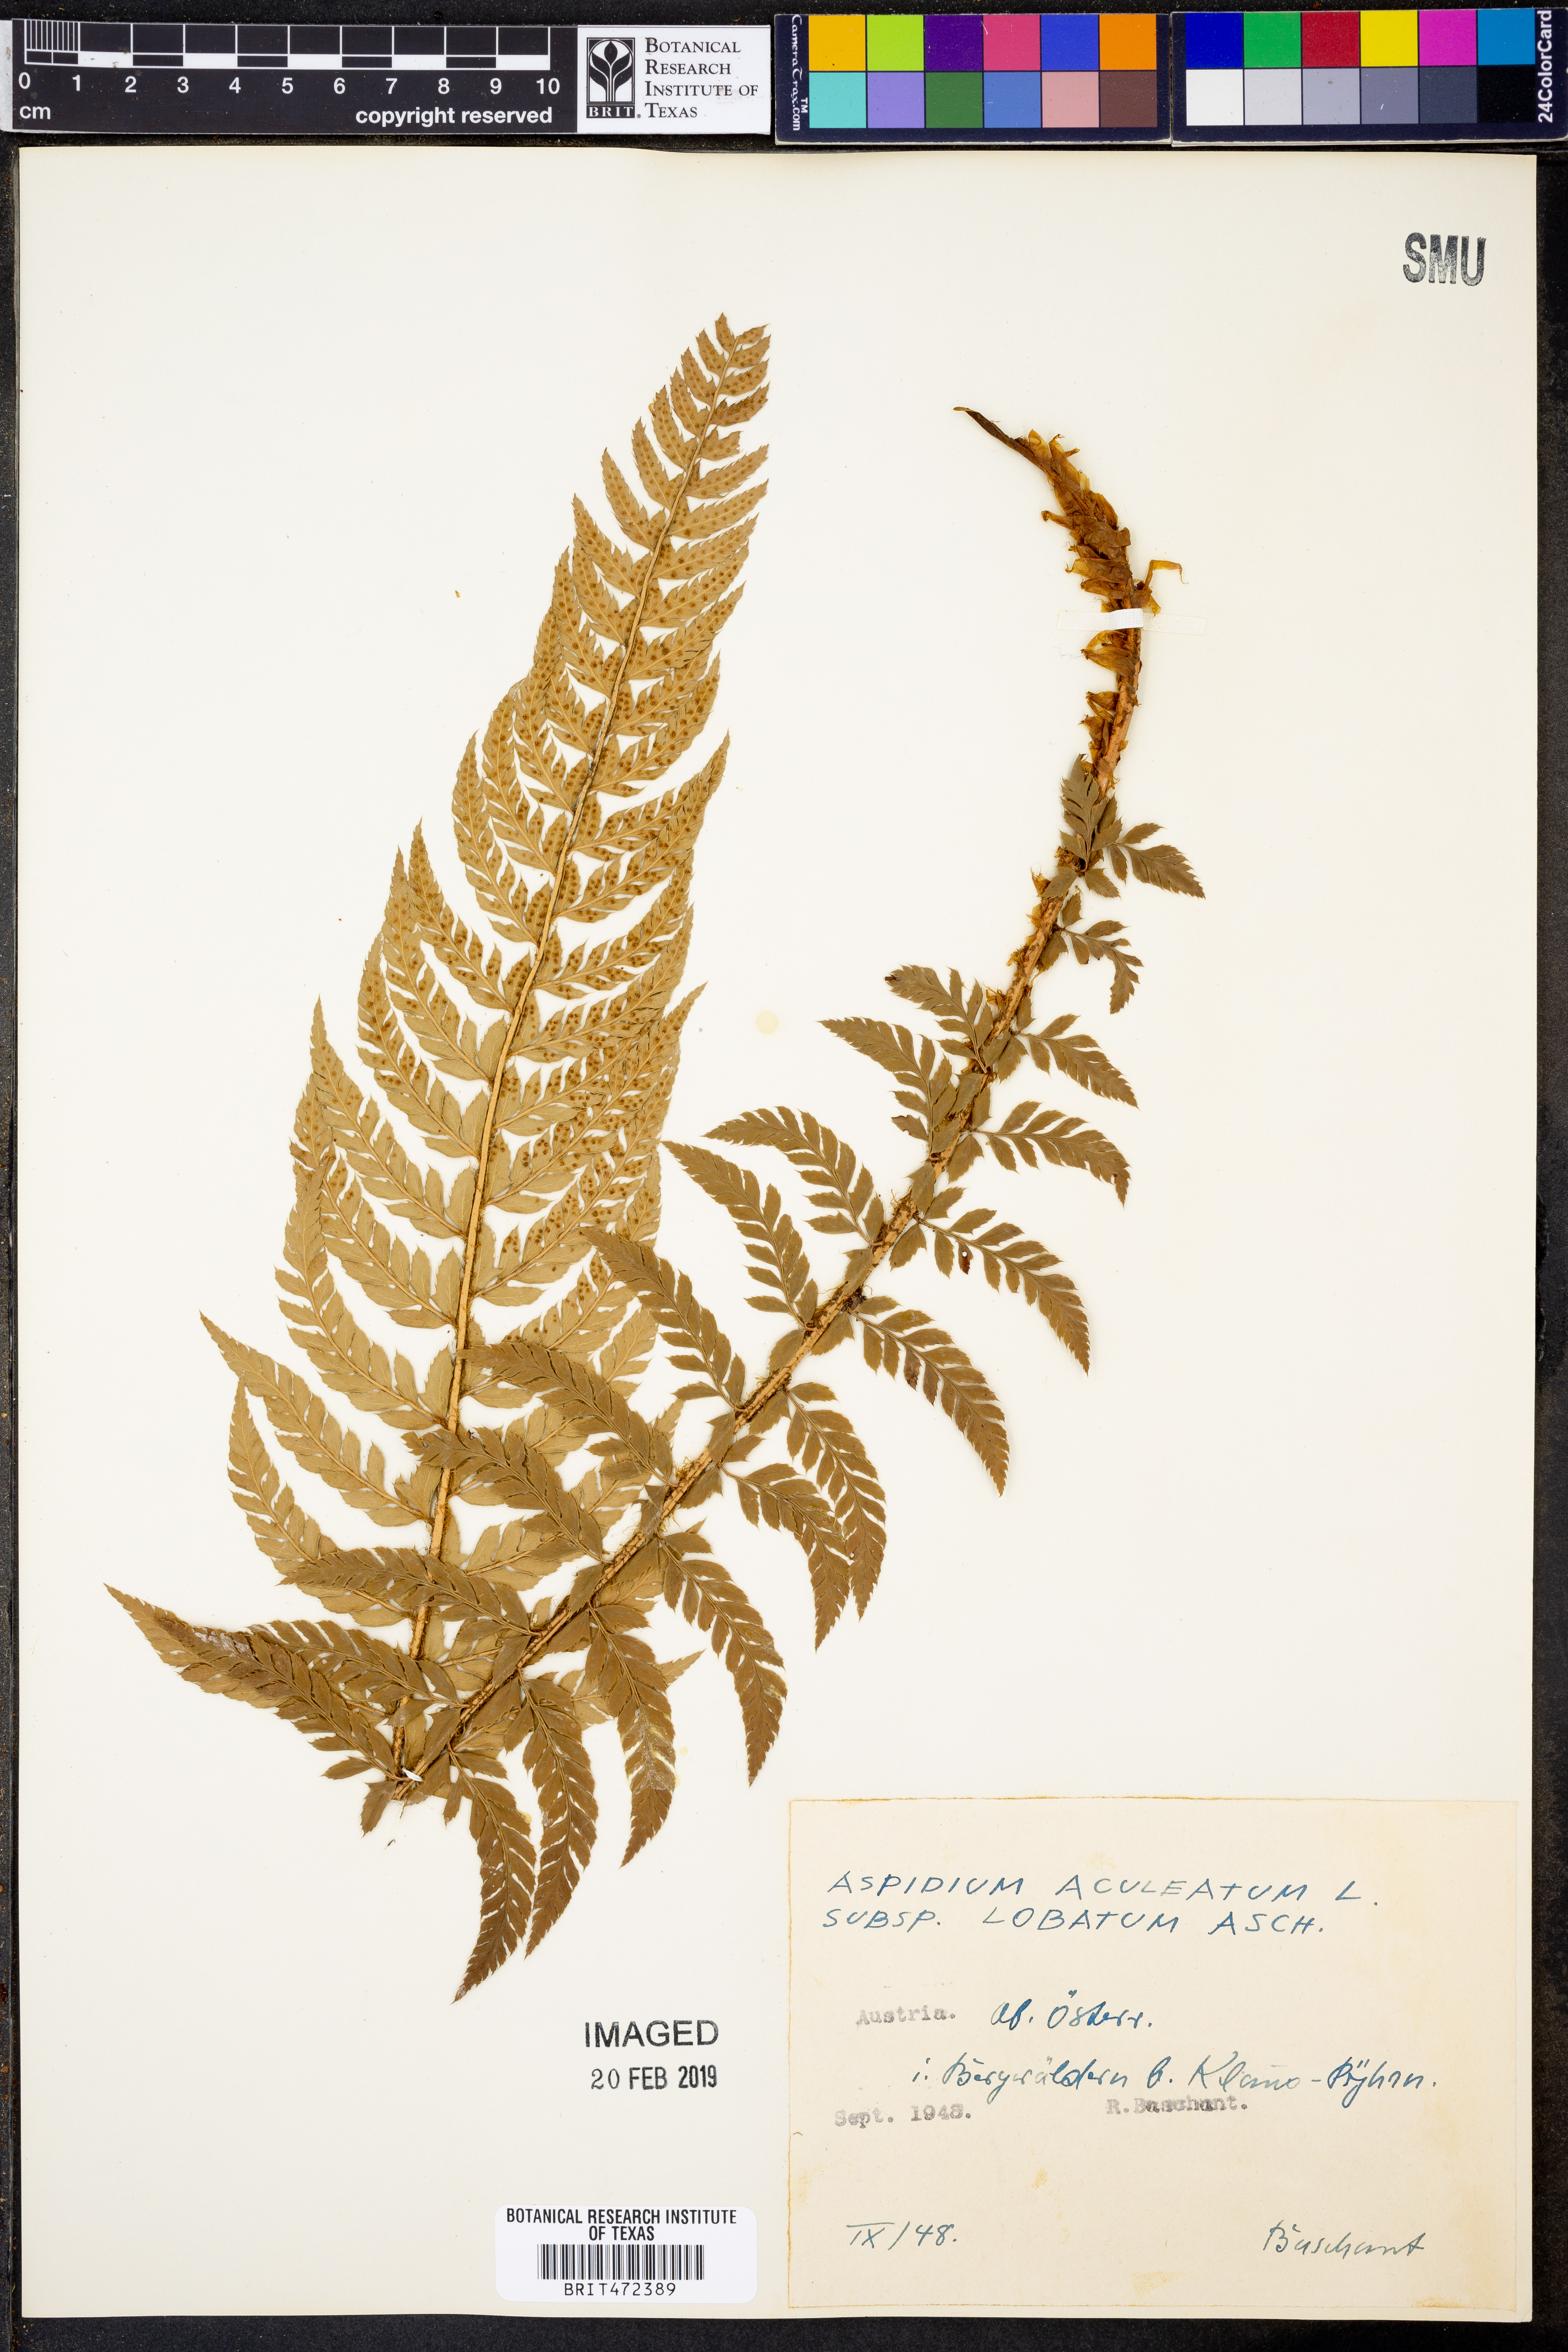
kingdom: Plantae
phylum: Tracheophyta
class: Polypodiopsida
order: Polypodiales
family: Dryopteridaceae
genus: Polystichum
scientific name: Polystichum aculeatum
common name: Hard shield-fern
